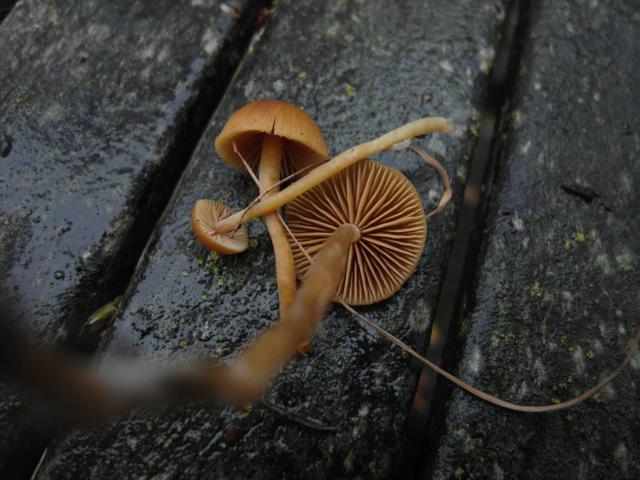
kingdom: Fungi
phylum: Basidiomycota
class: Agaricomycetes
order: Agaricales
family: Hymenogastraceae
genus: Galerina
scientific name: Galerina pumila
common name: honninggul hjelmhat
